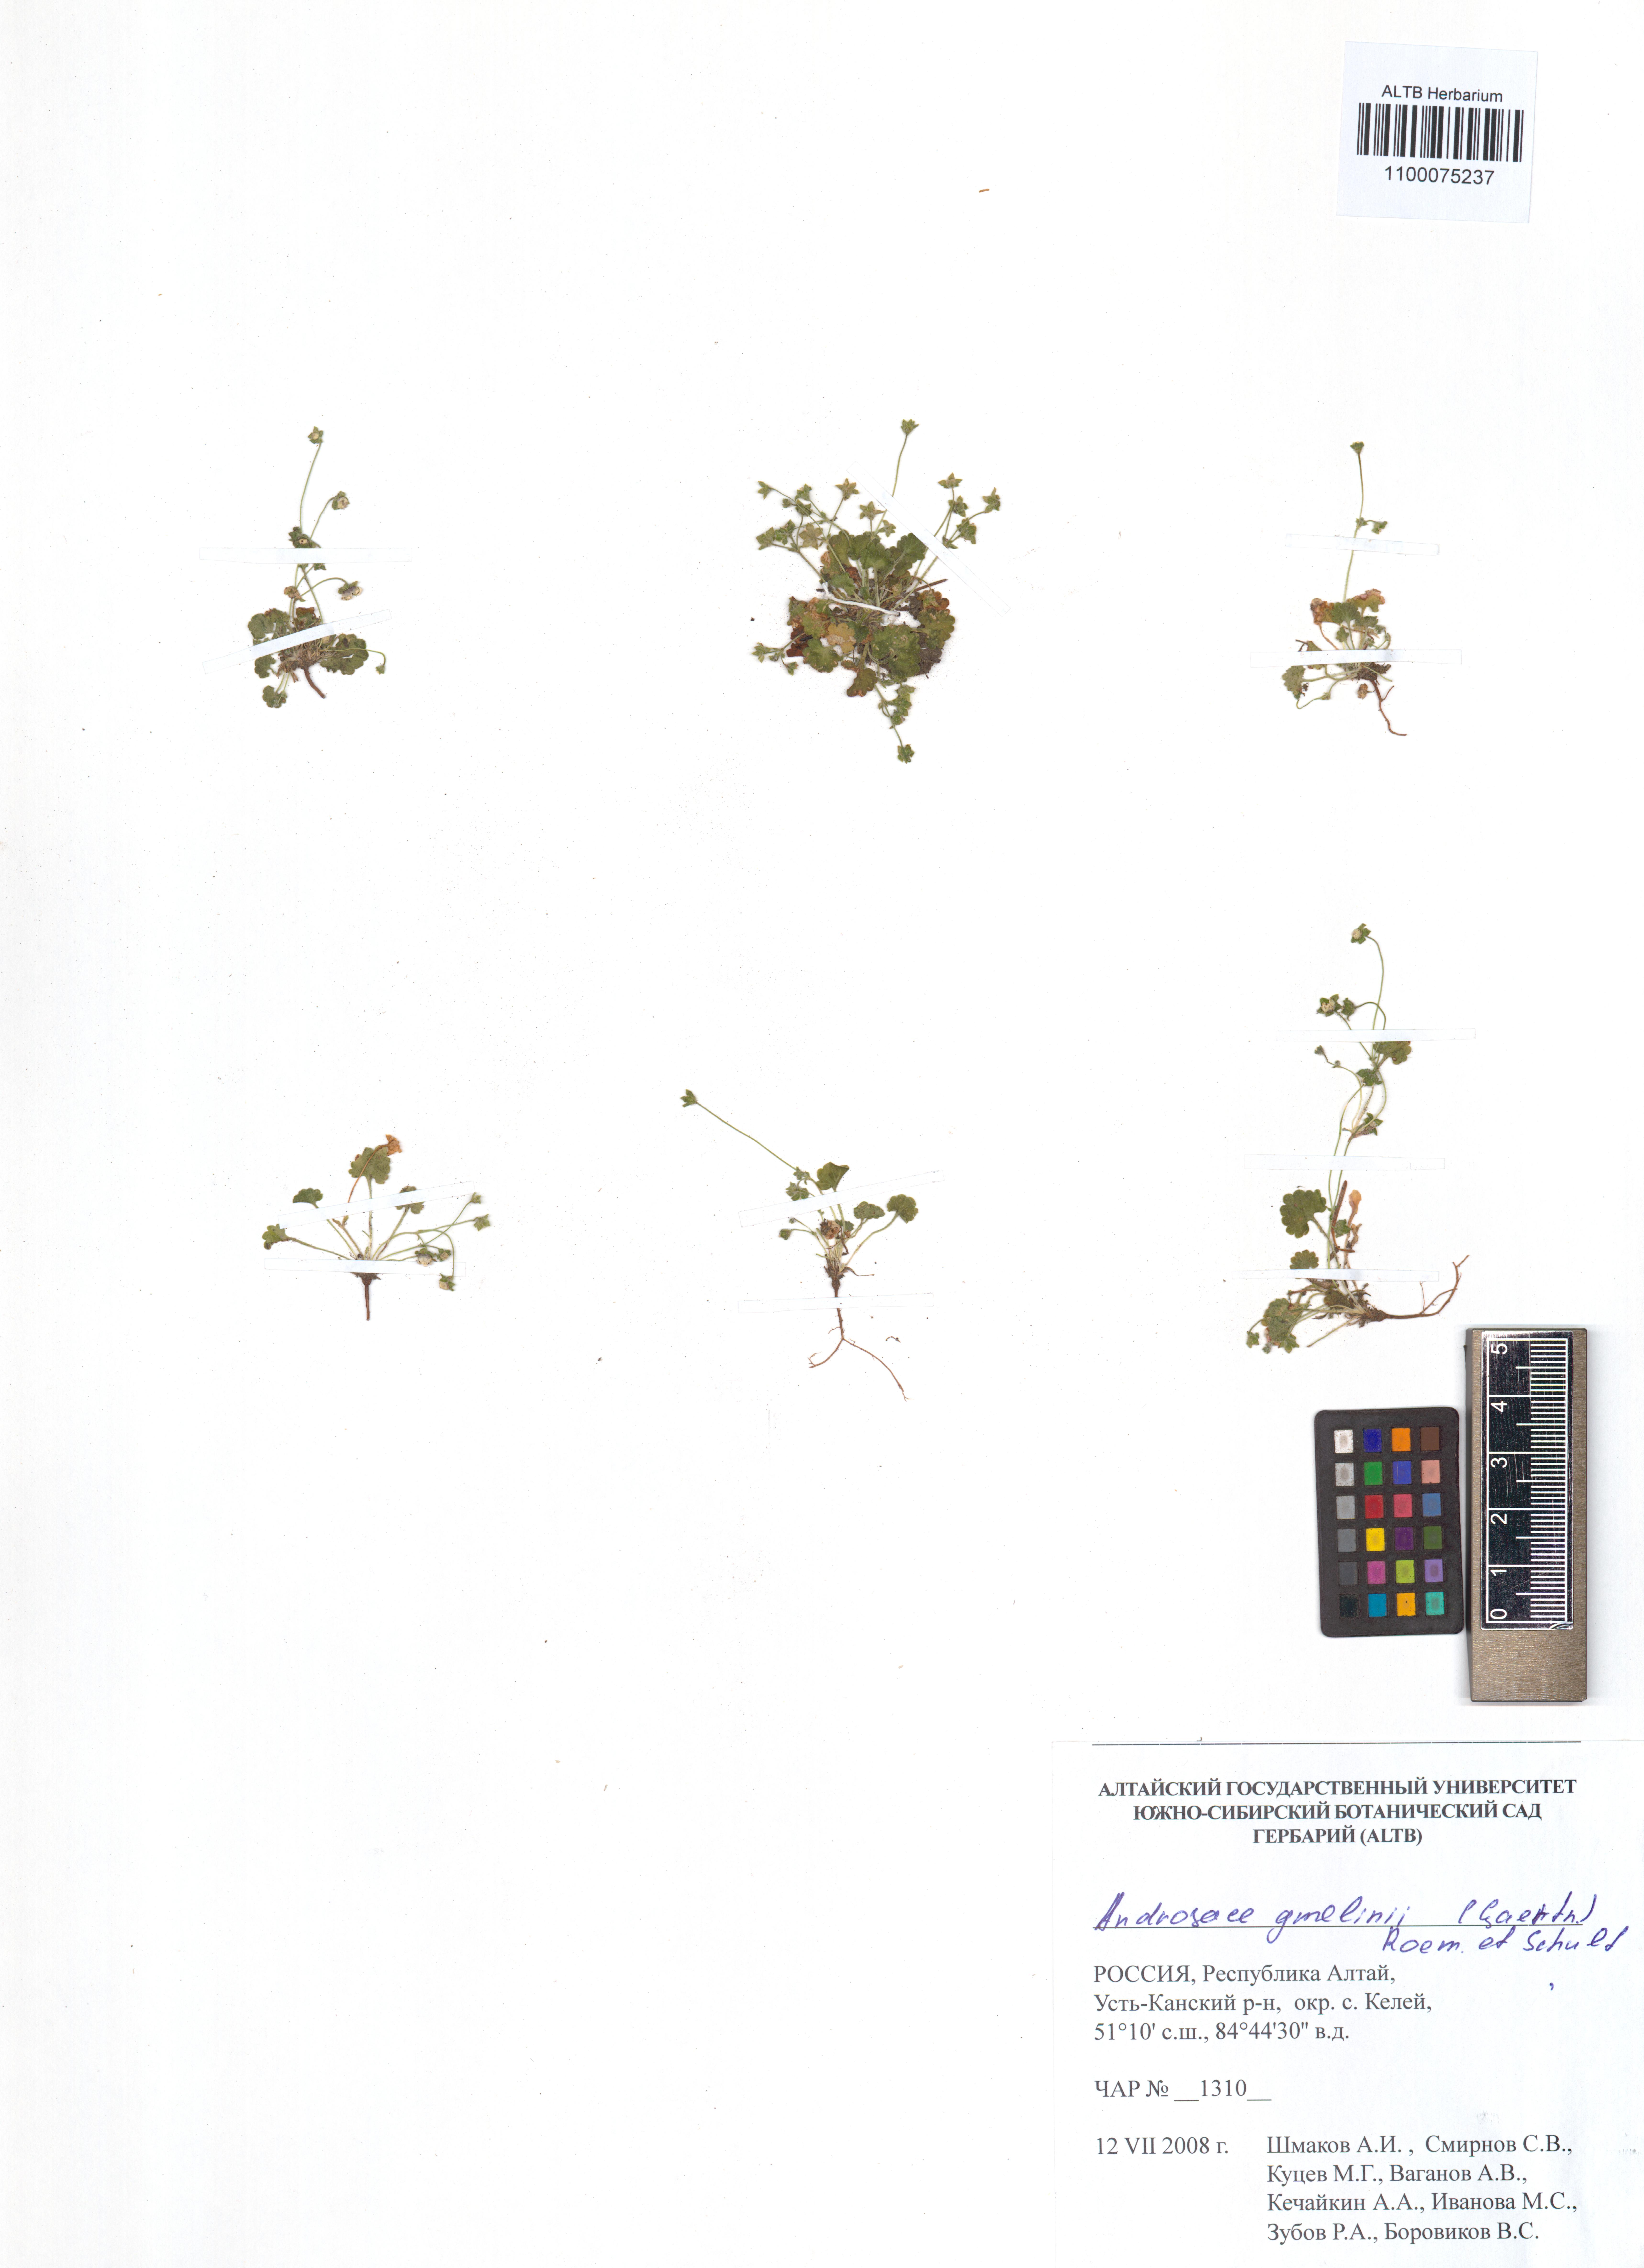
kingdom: Plantae
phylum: Tracheophyta
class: Magnoliopsida
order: Ericales
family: Primulaceae
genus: Androsace
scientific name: Androsace gmelinii
